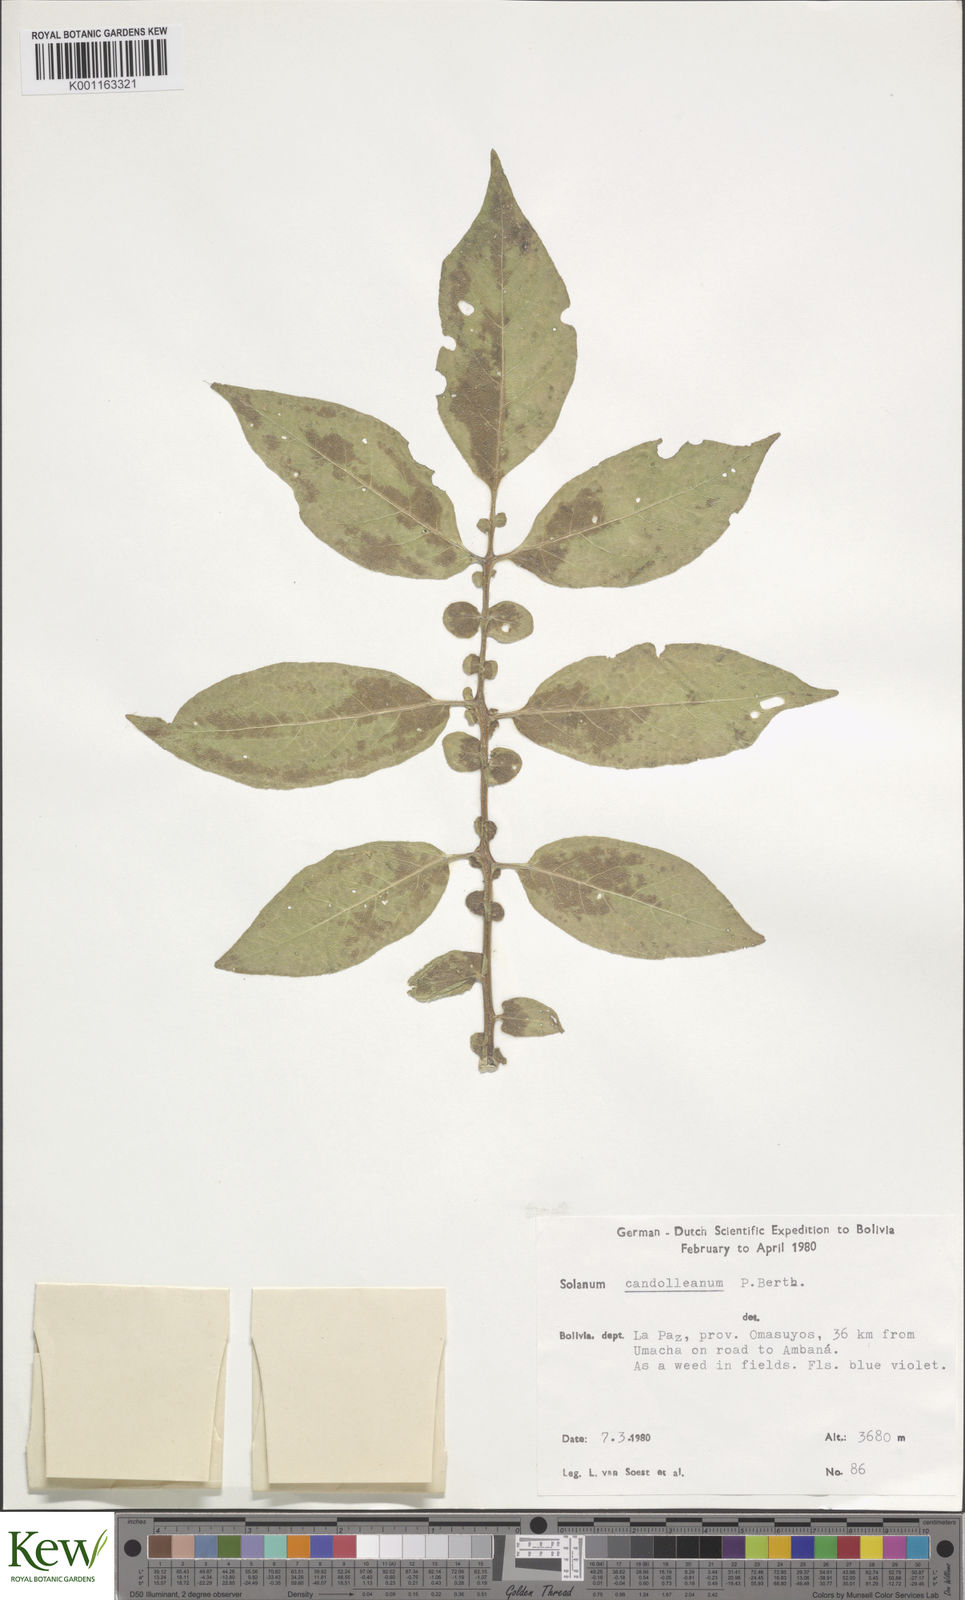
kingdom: Plantae
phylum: Tracheophyta
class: Magnoliopsida
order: Solanales
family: Solanaceae
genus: Solanum
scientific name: Solanum candolleanum
